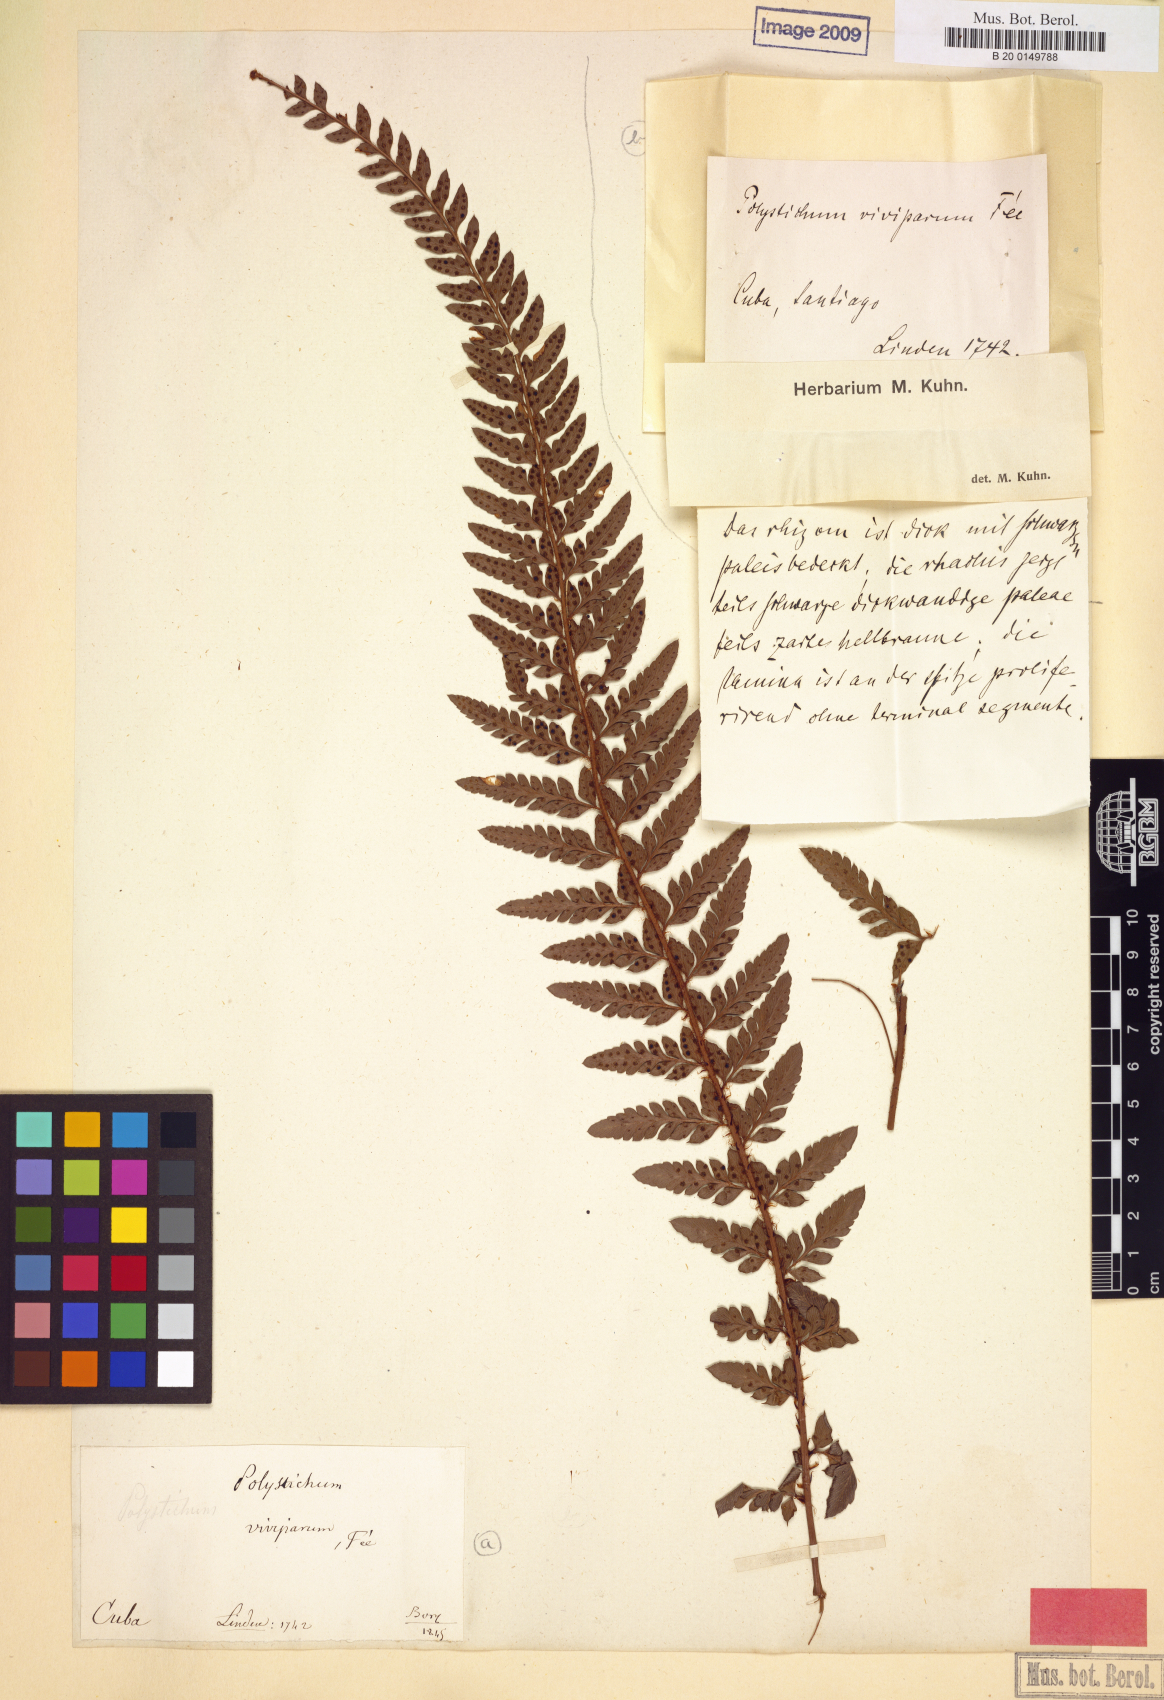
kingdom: Plantae
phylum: Tracheophyta
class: Polypodiopsida
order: Polypodiales
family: Dryopteridaceae
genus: Polystichum
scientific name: Polystichum heterolepis
